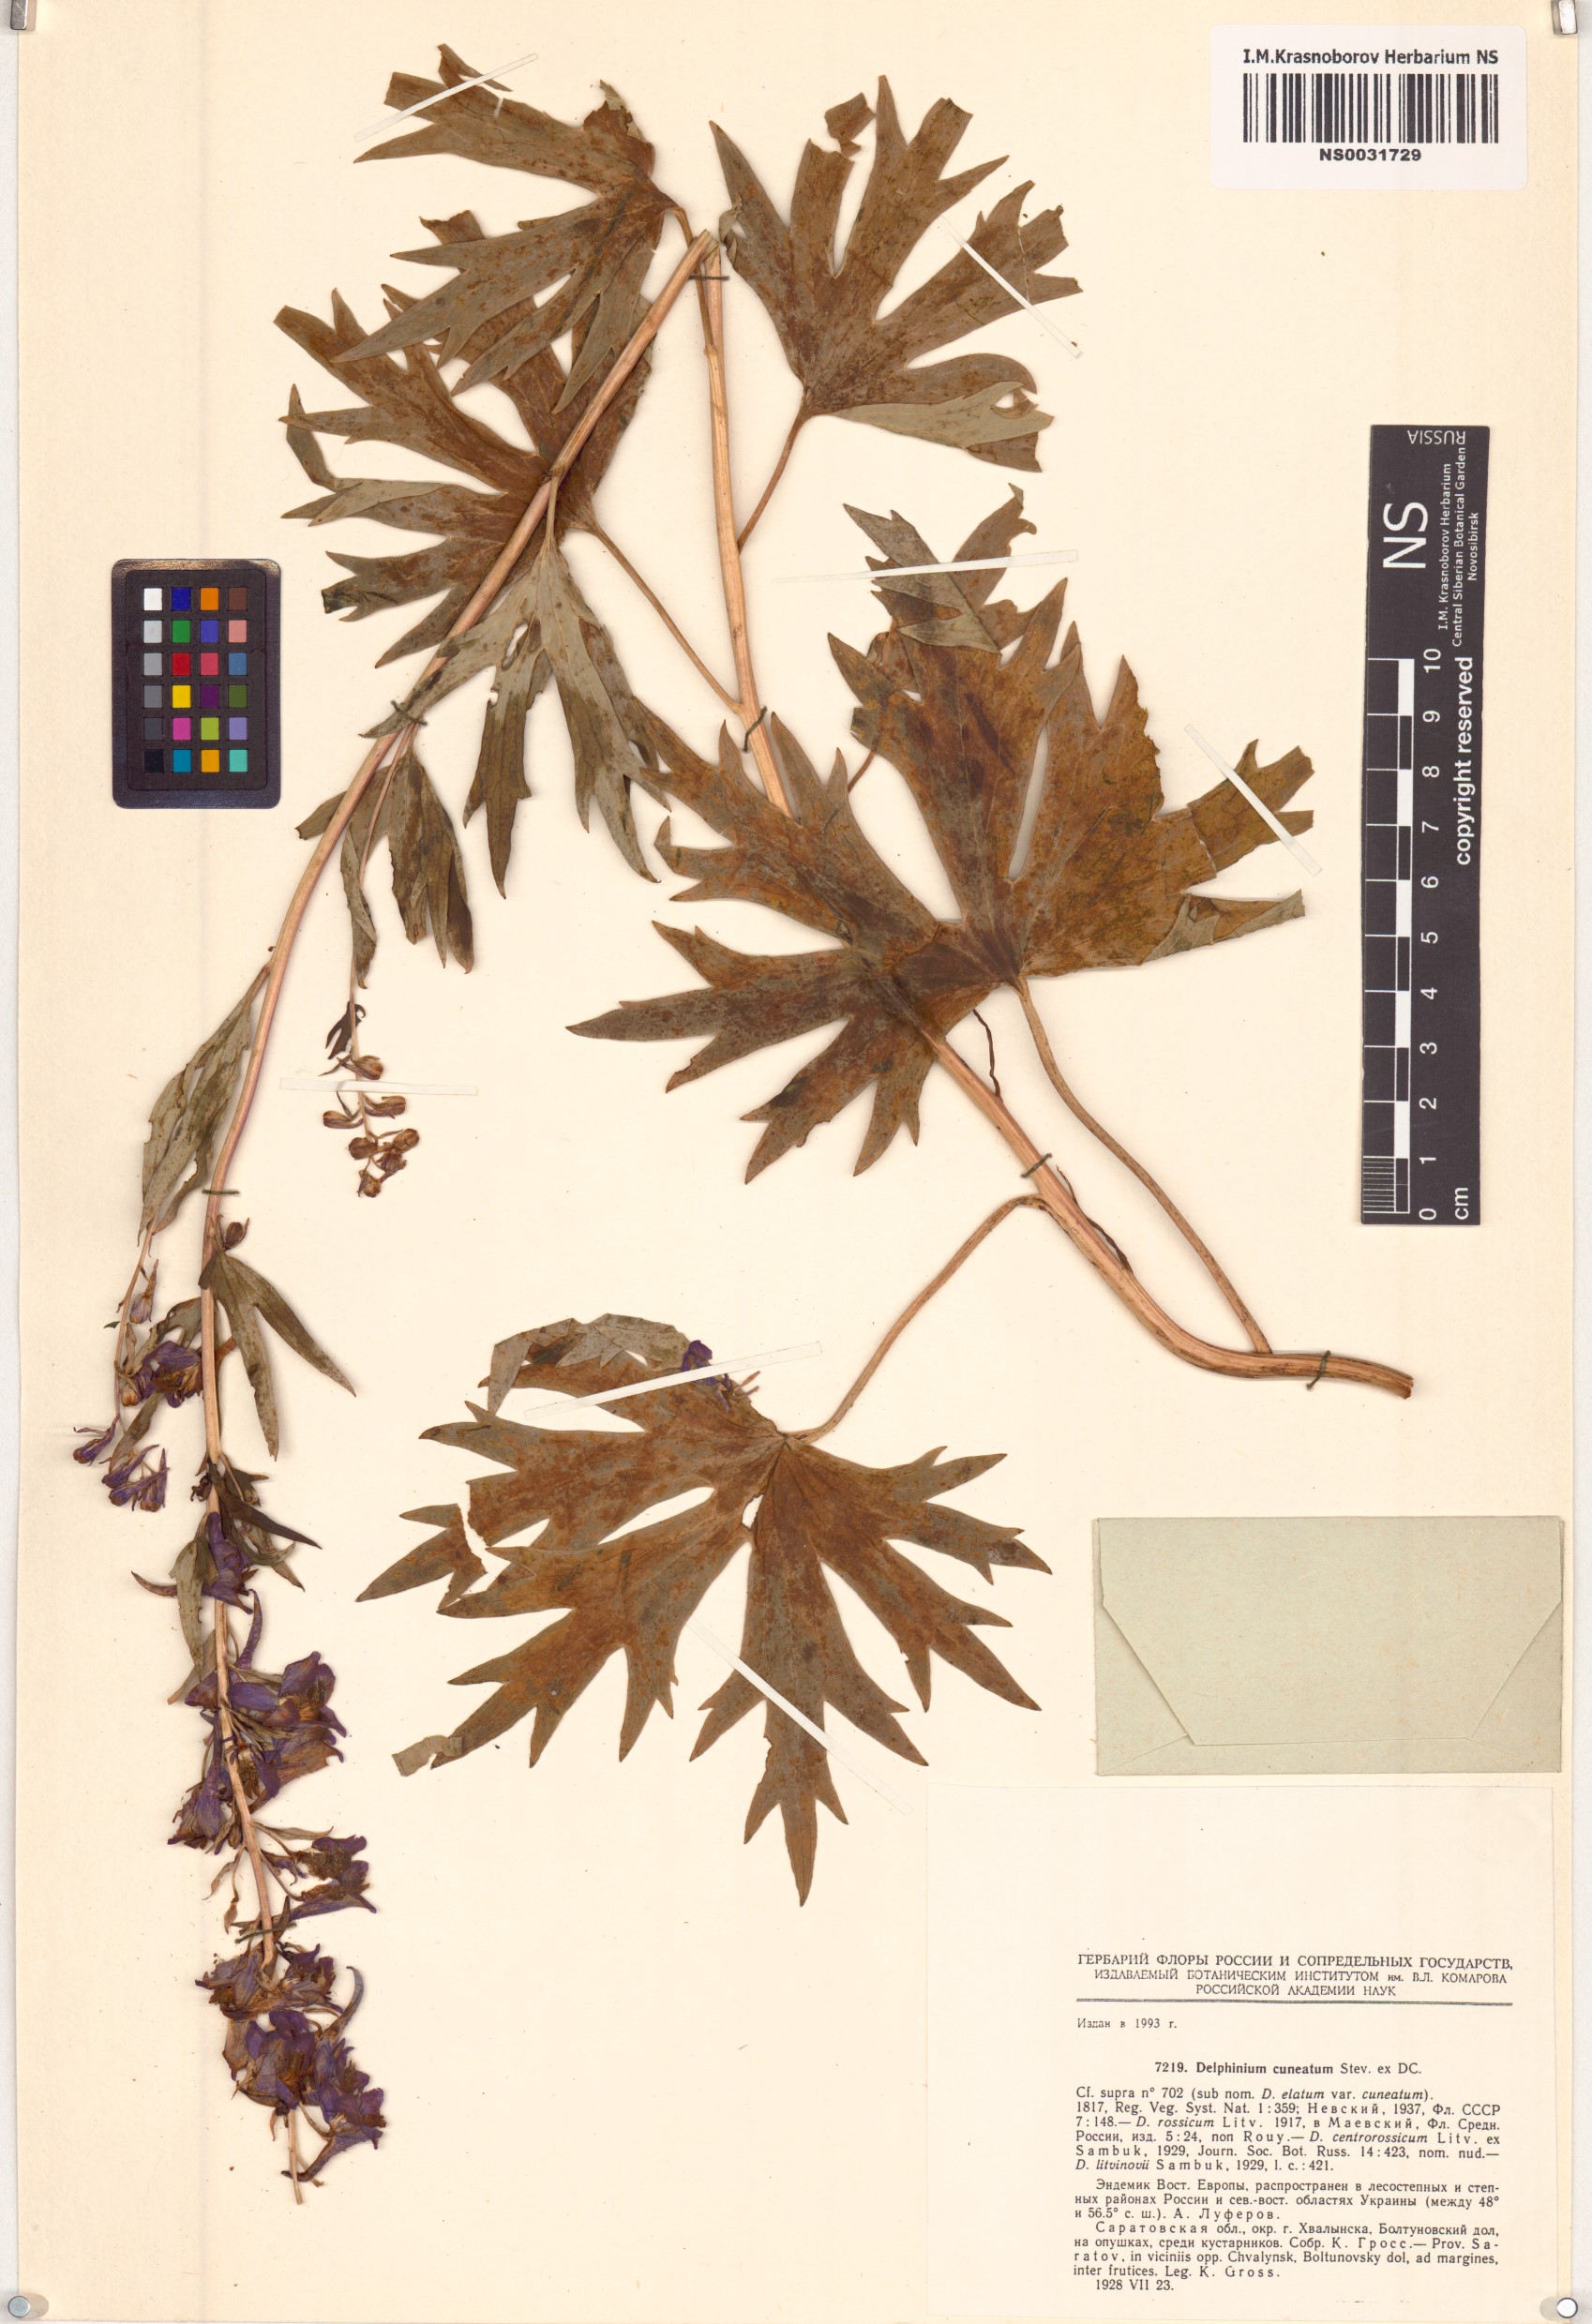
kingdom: Plantae
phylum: Tracheophyta
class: Magnoliopsida
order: Ranunculales
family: Ranunculaceae
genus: Delphinium
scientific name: Delphinium cuneatum
